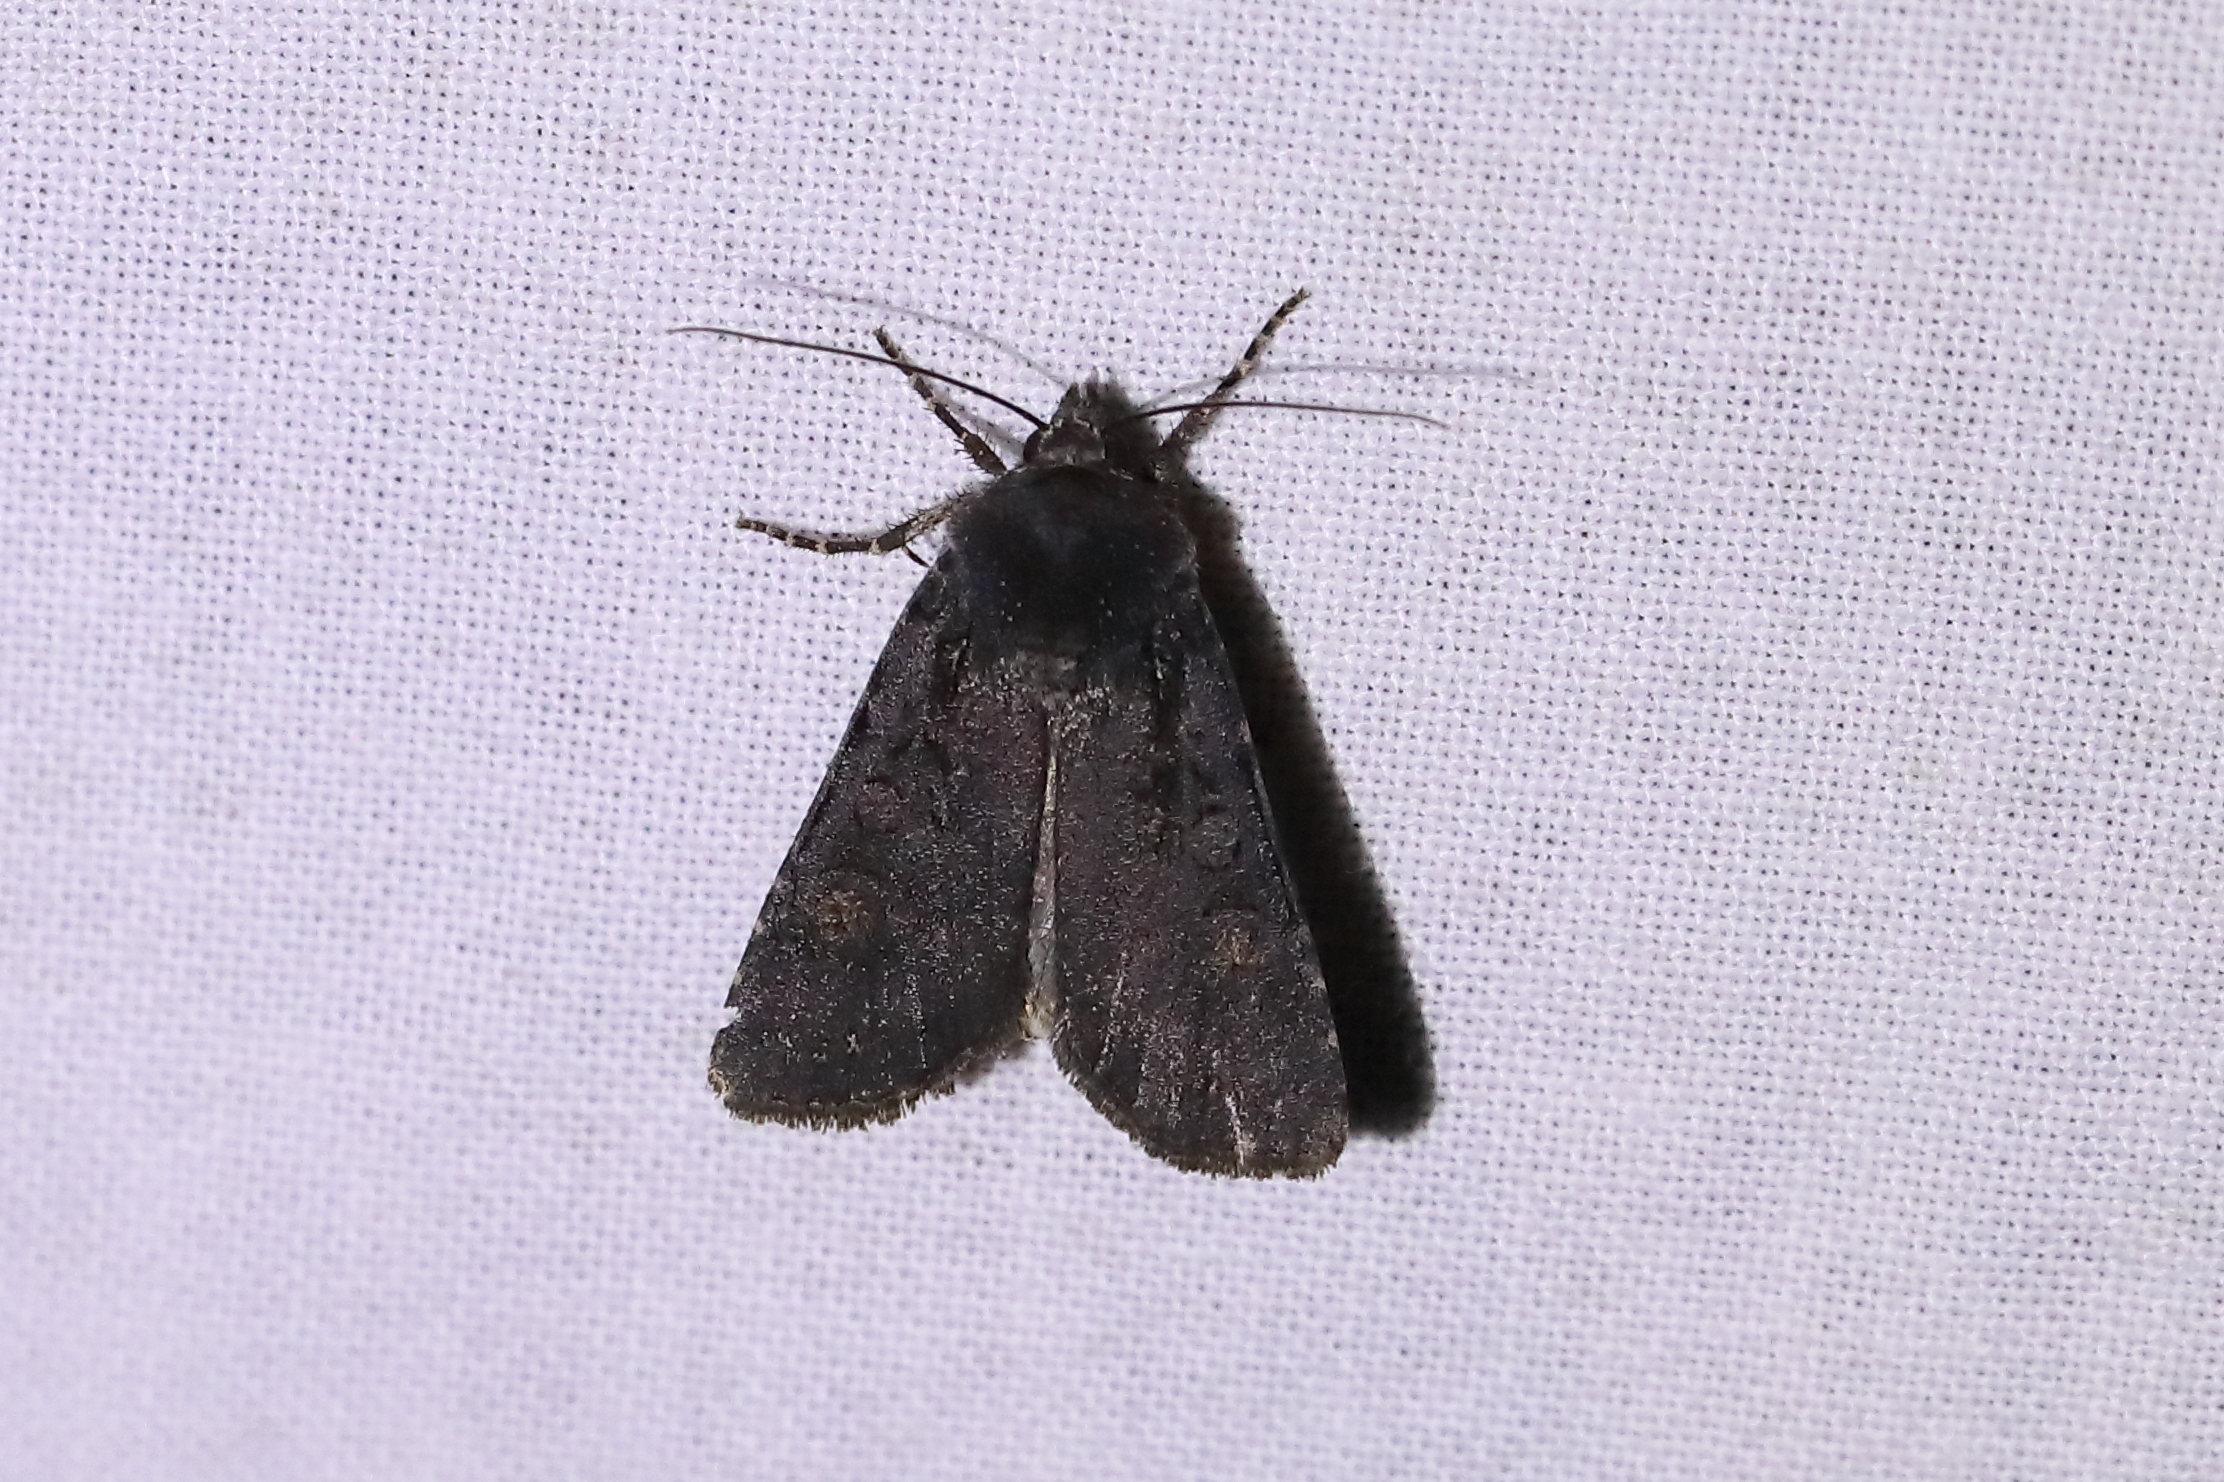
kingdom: Animalia
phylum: Arthropoda
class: Insecta
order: Lepidoptera
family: Noctuidae
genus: Euxoa
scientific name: Euxoa nigricans
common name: Garden dart
